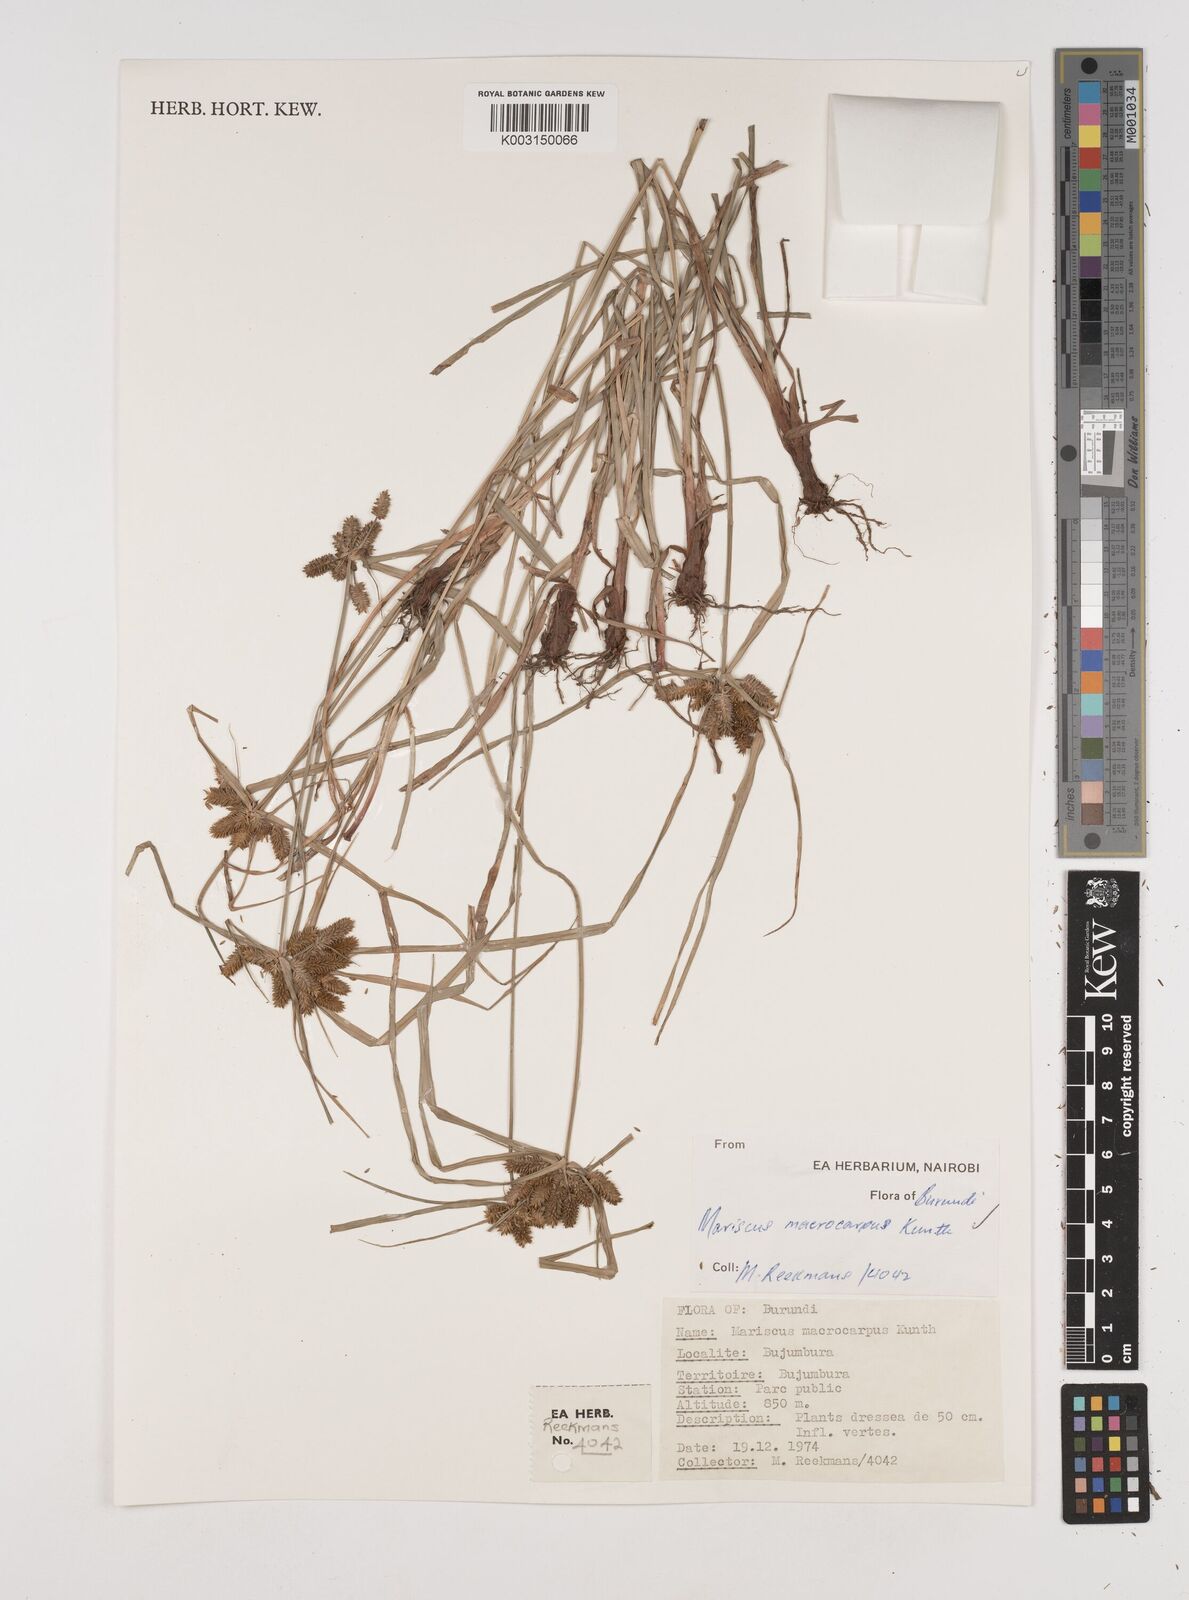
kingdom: Plantae
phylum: Tracheophyta
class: Liliopsida
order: Poales
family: Cyperaceae
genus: Cyperus
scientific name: Cyperus macrocarpus
